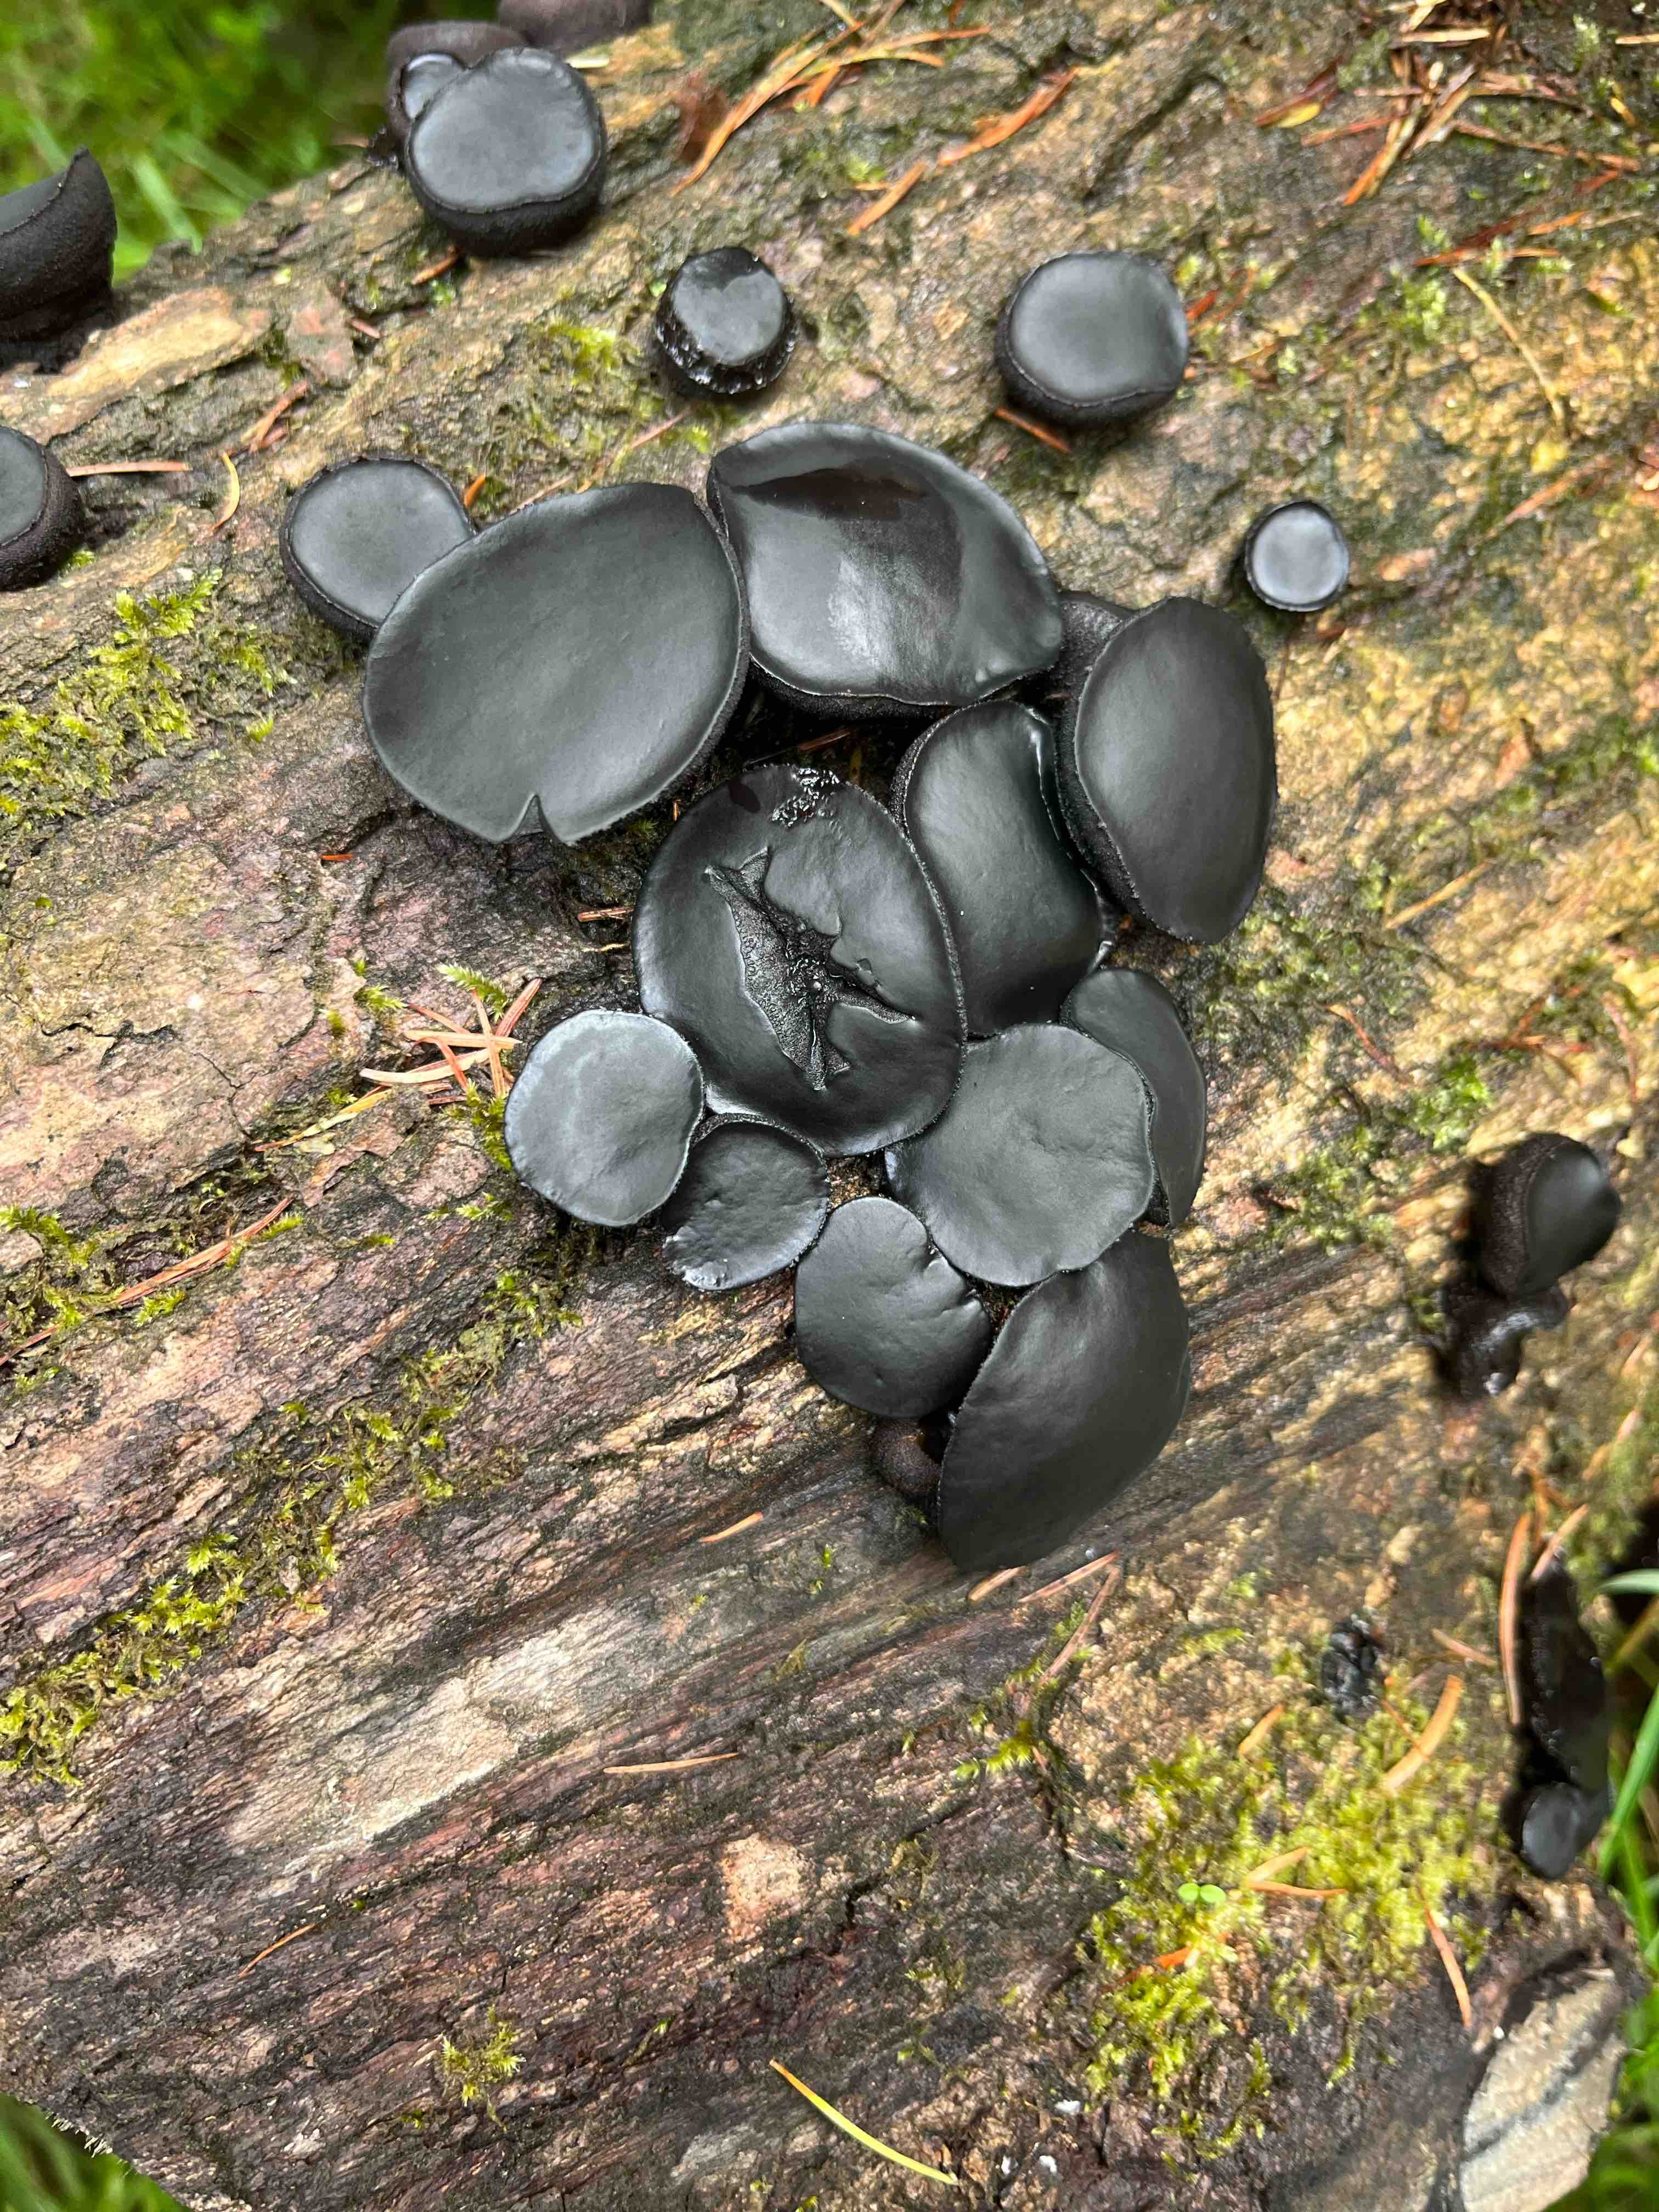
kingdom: Fungi
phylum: Ascomycota
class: Leotiomycetes
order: Phacidiales
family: Phacidiaceae
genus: Bulgaria
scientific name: Bulgaria inquinans
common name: afsmittende topsvamp
